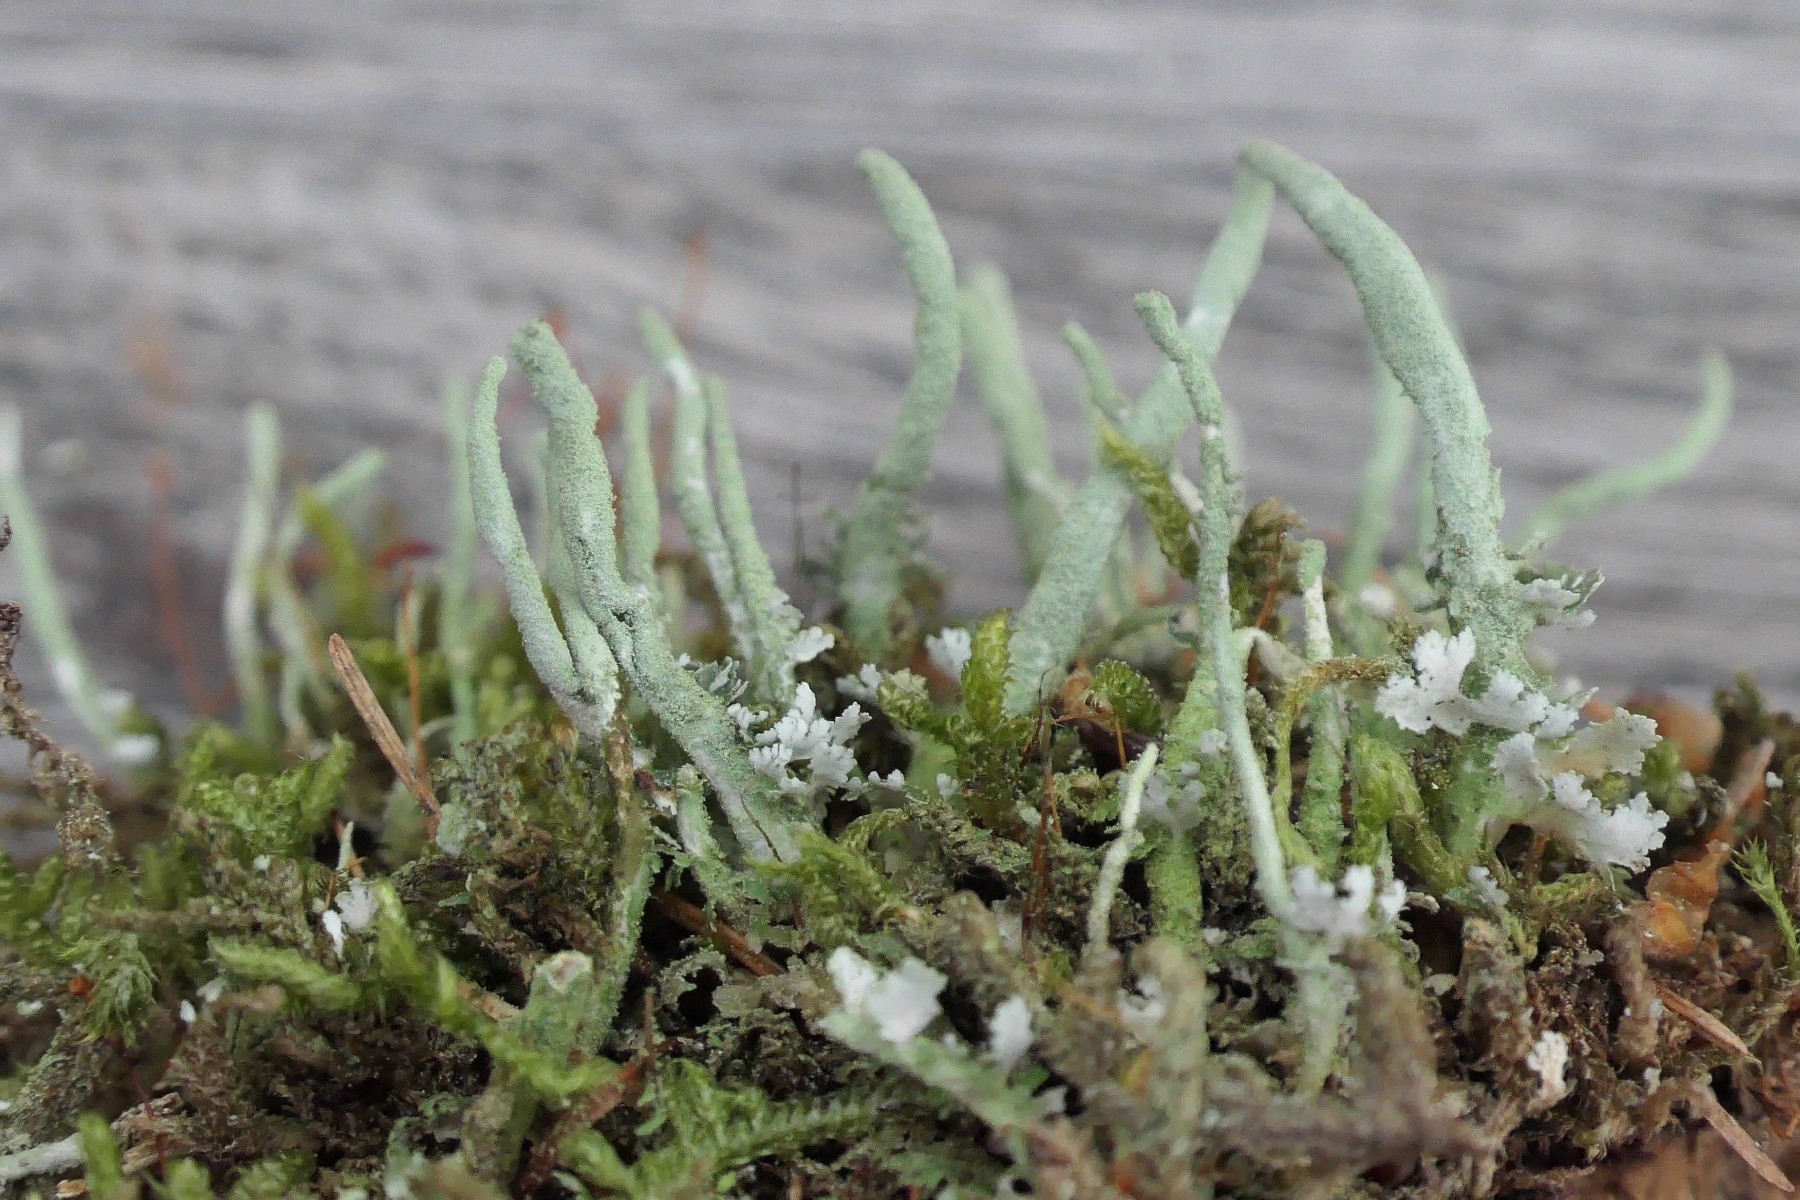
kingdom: Fungi
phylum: Ascomycota
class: Lecanoromycetes
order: Lecanorales
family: Cladoniaceae
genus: Cladonia
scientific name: Cladonia glauca
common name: grågrøn bægerlav
